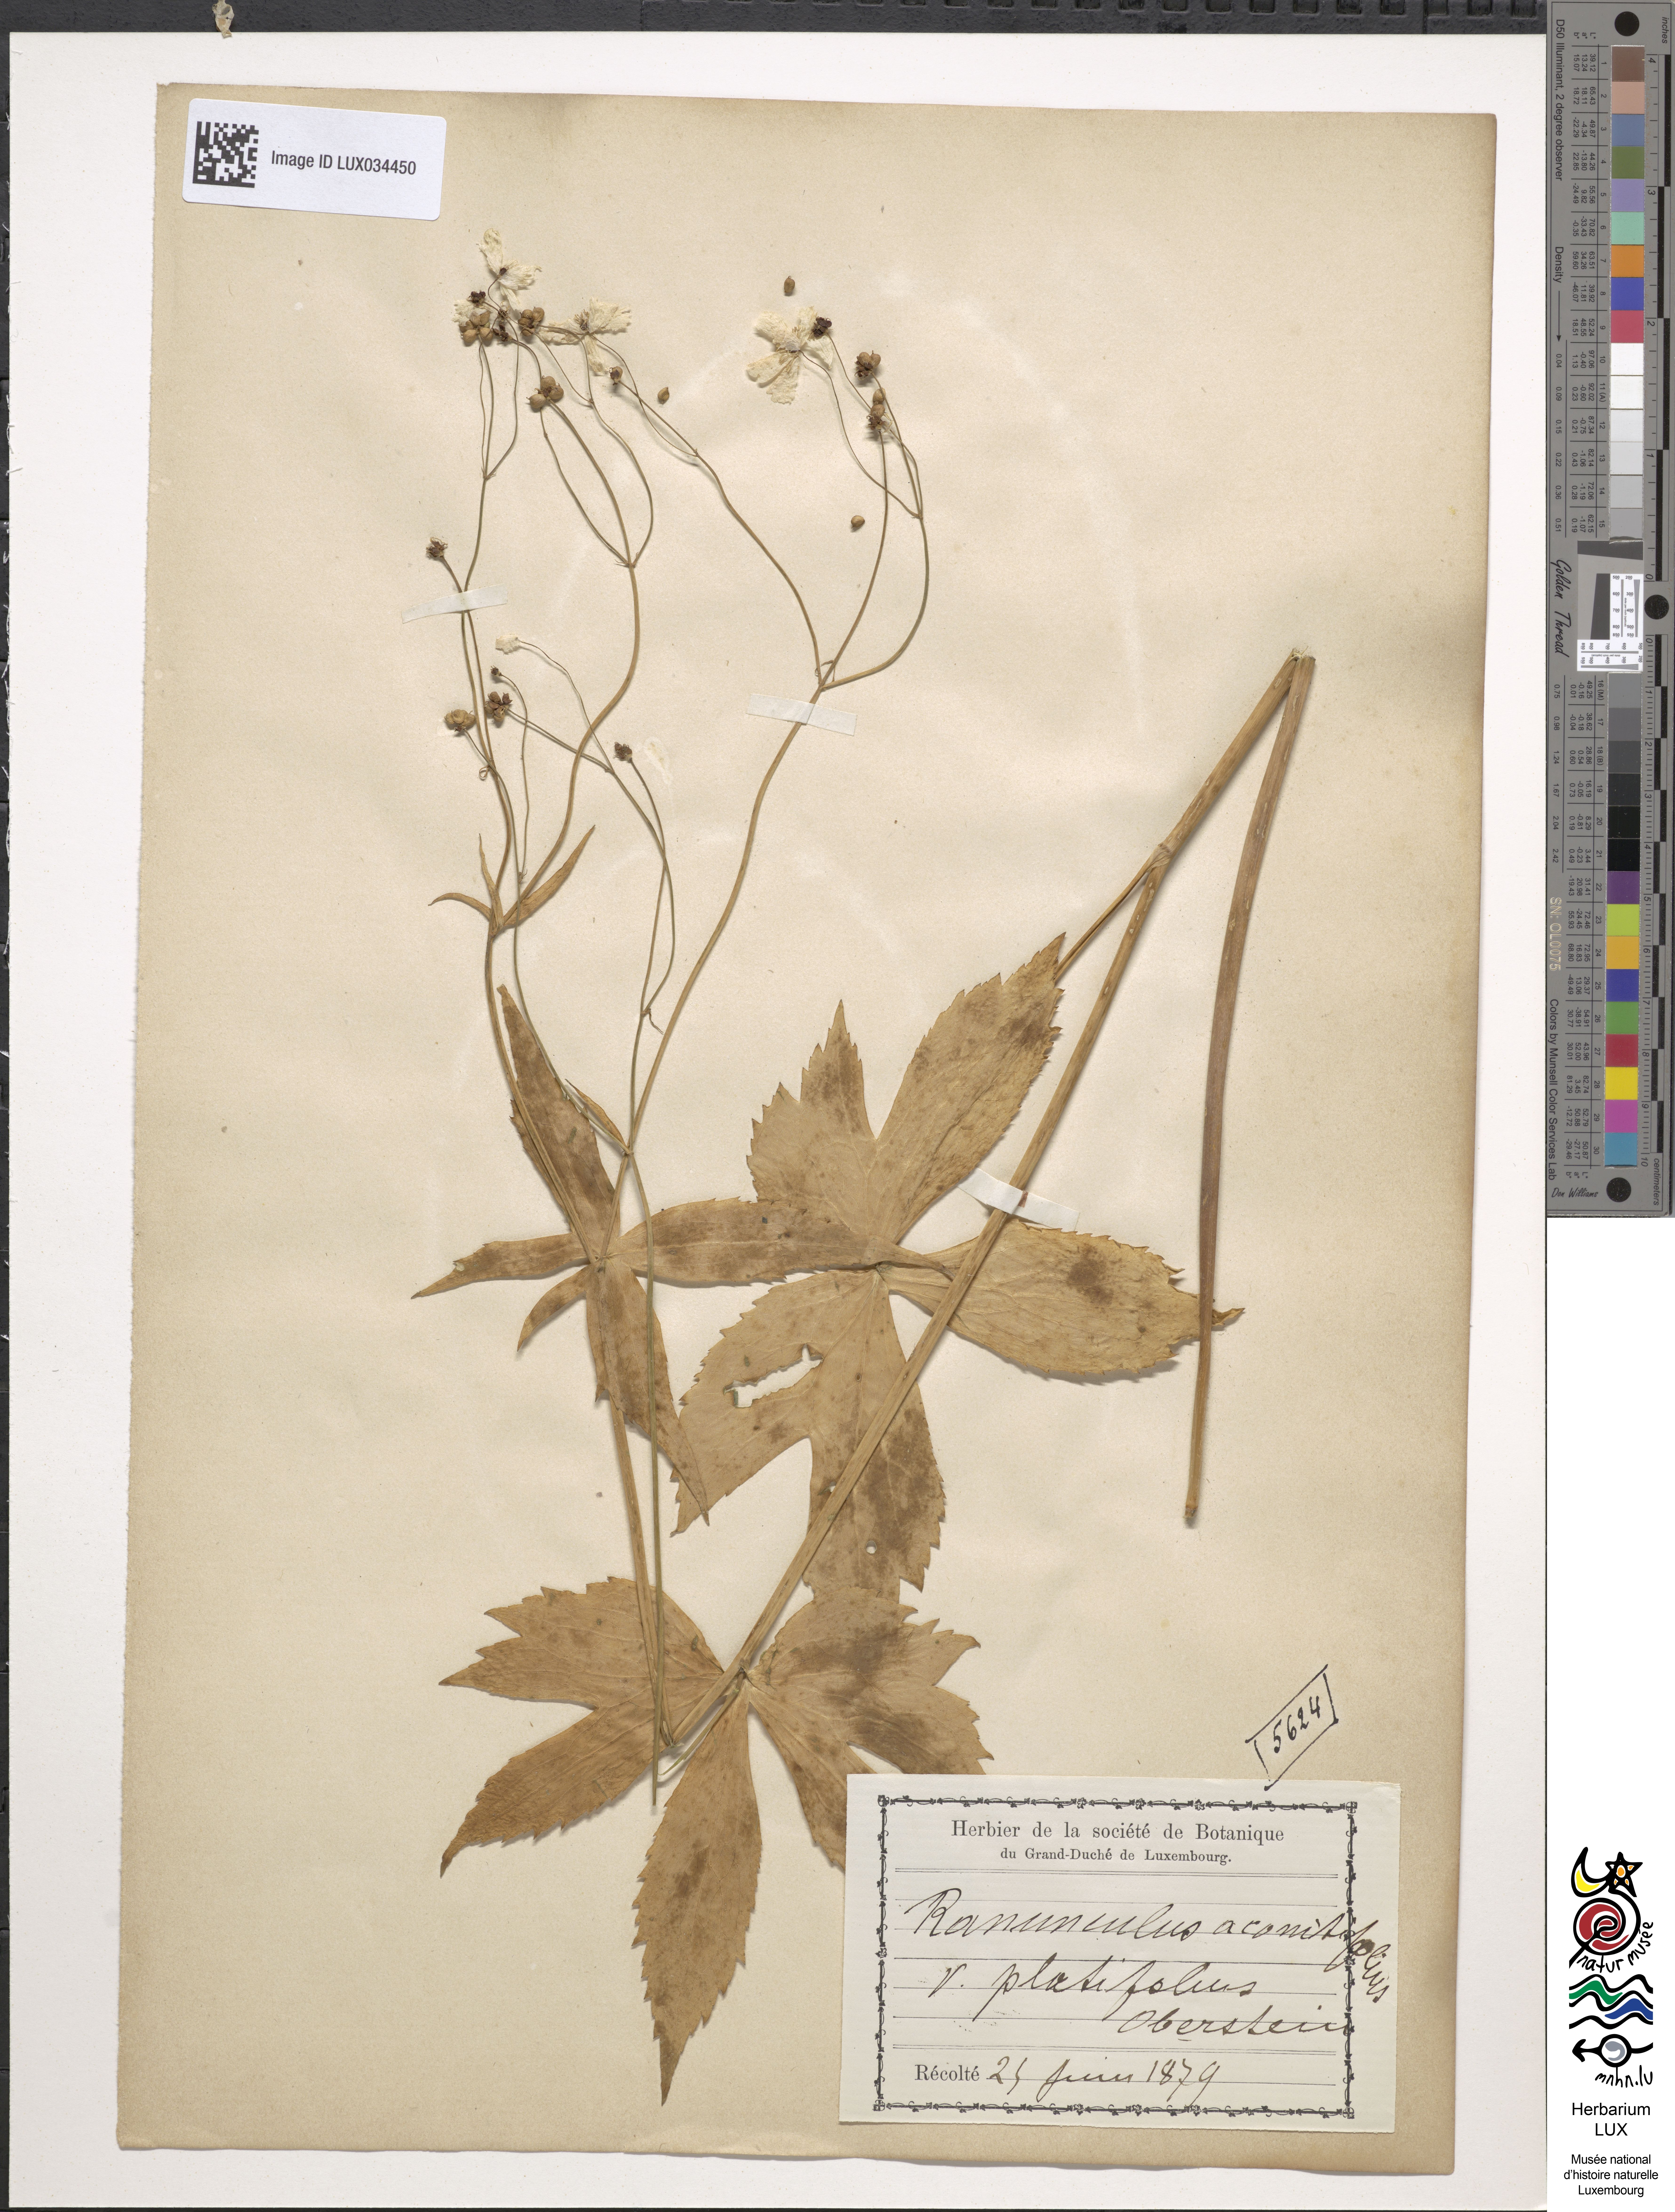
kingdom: Plantae
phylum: Tracheophyta
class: Magnoliopsida
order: Ranunculales
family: Ranunculaceae
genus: Ranunculus
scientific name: Ranunculus aconitifolius
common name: Aconite-leaved buttercup
